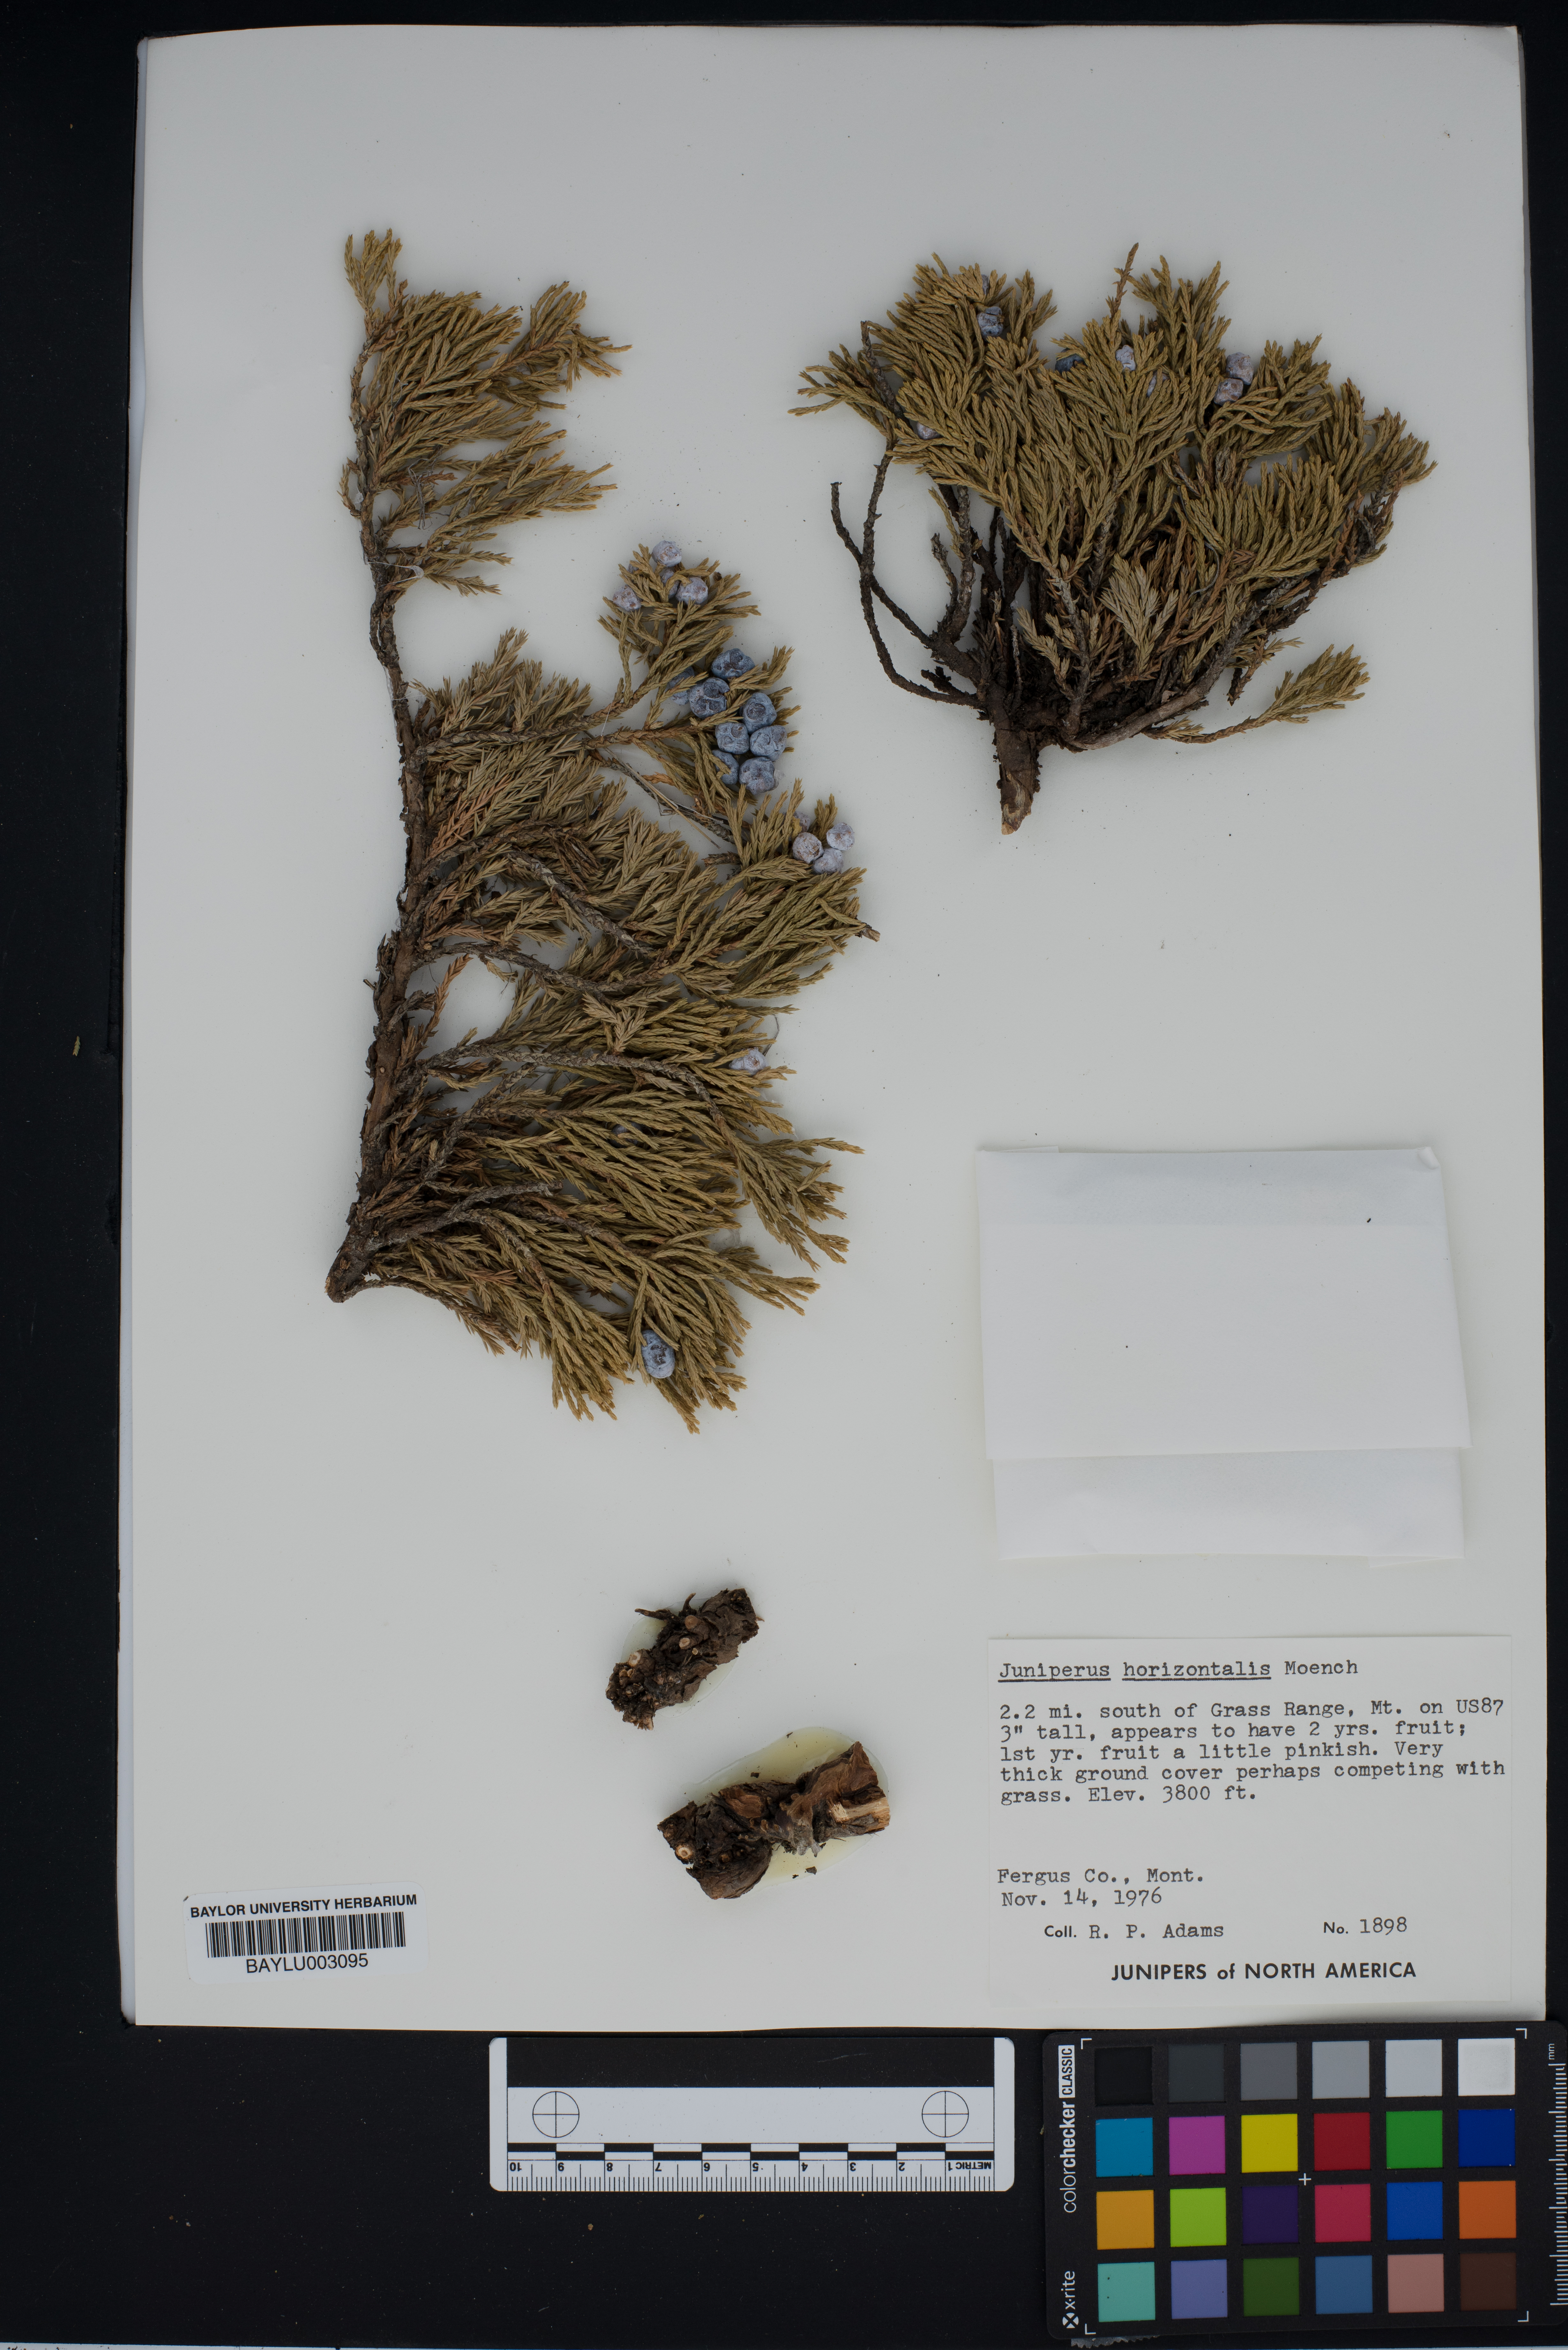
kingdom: Plantae
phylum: Tracheophyta
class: Pinopsida
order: Pinales
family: Cupressaceae
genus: Juniperus
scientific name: Juniperus horizontalis
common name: Creeping juniper
